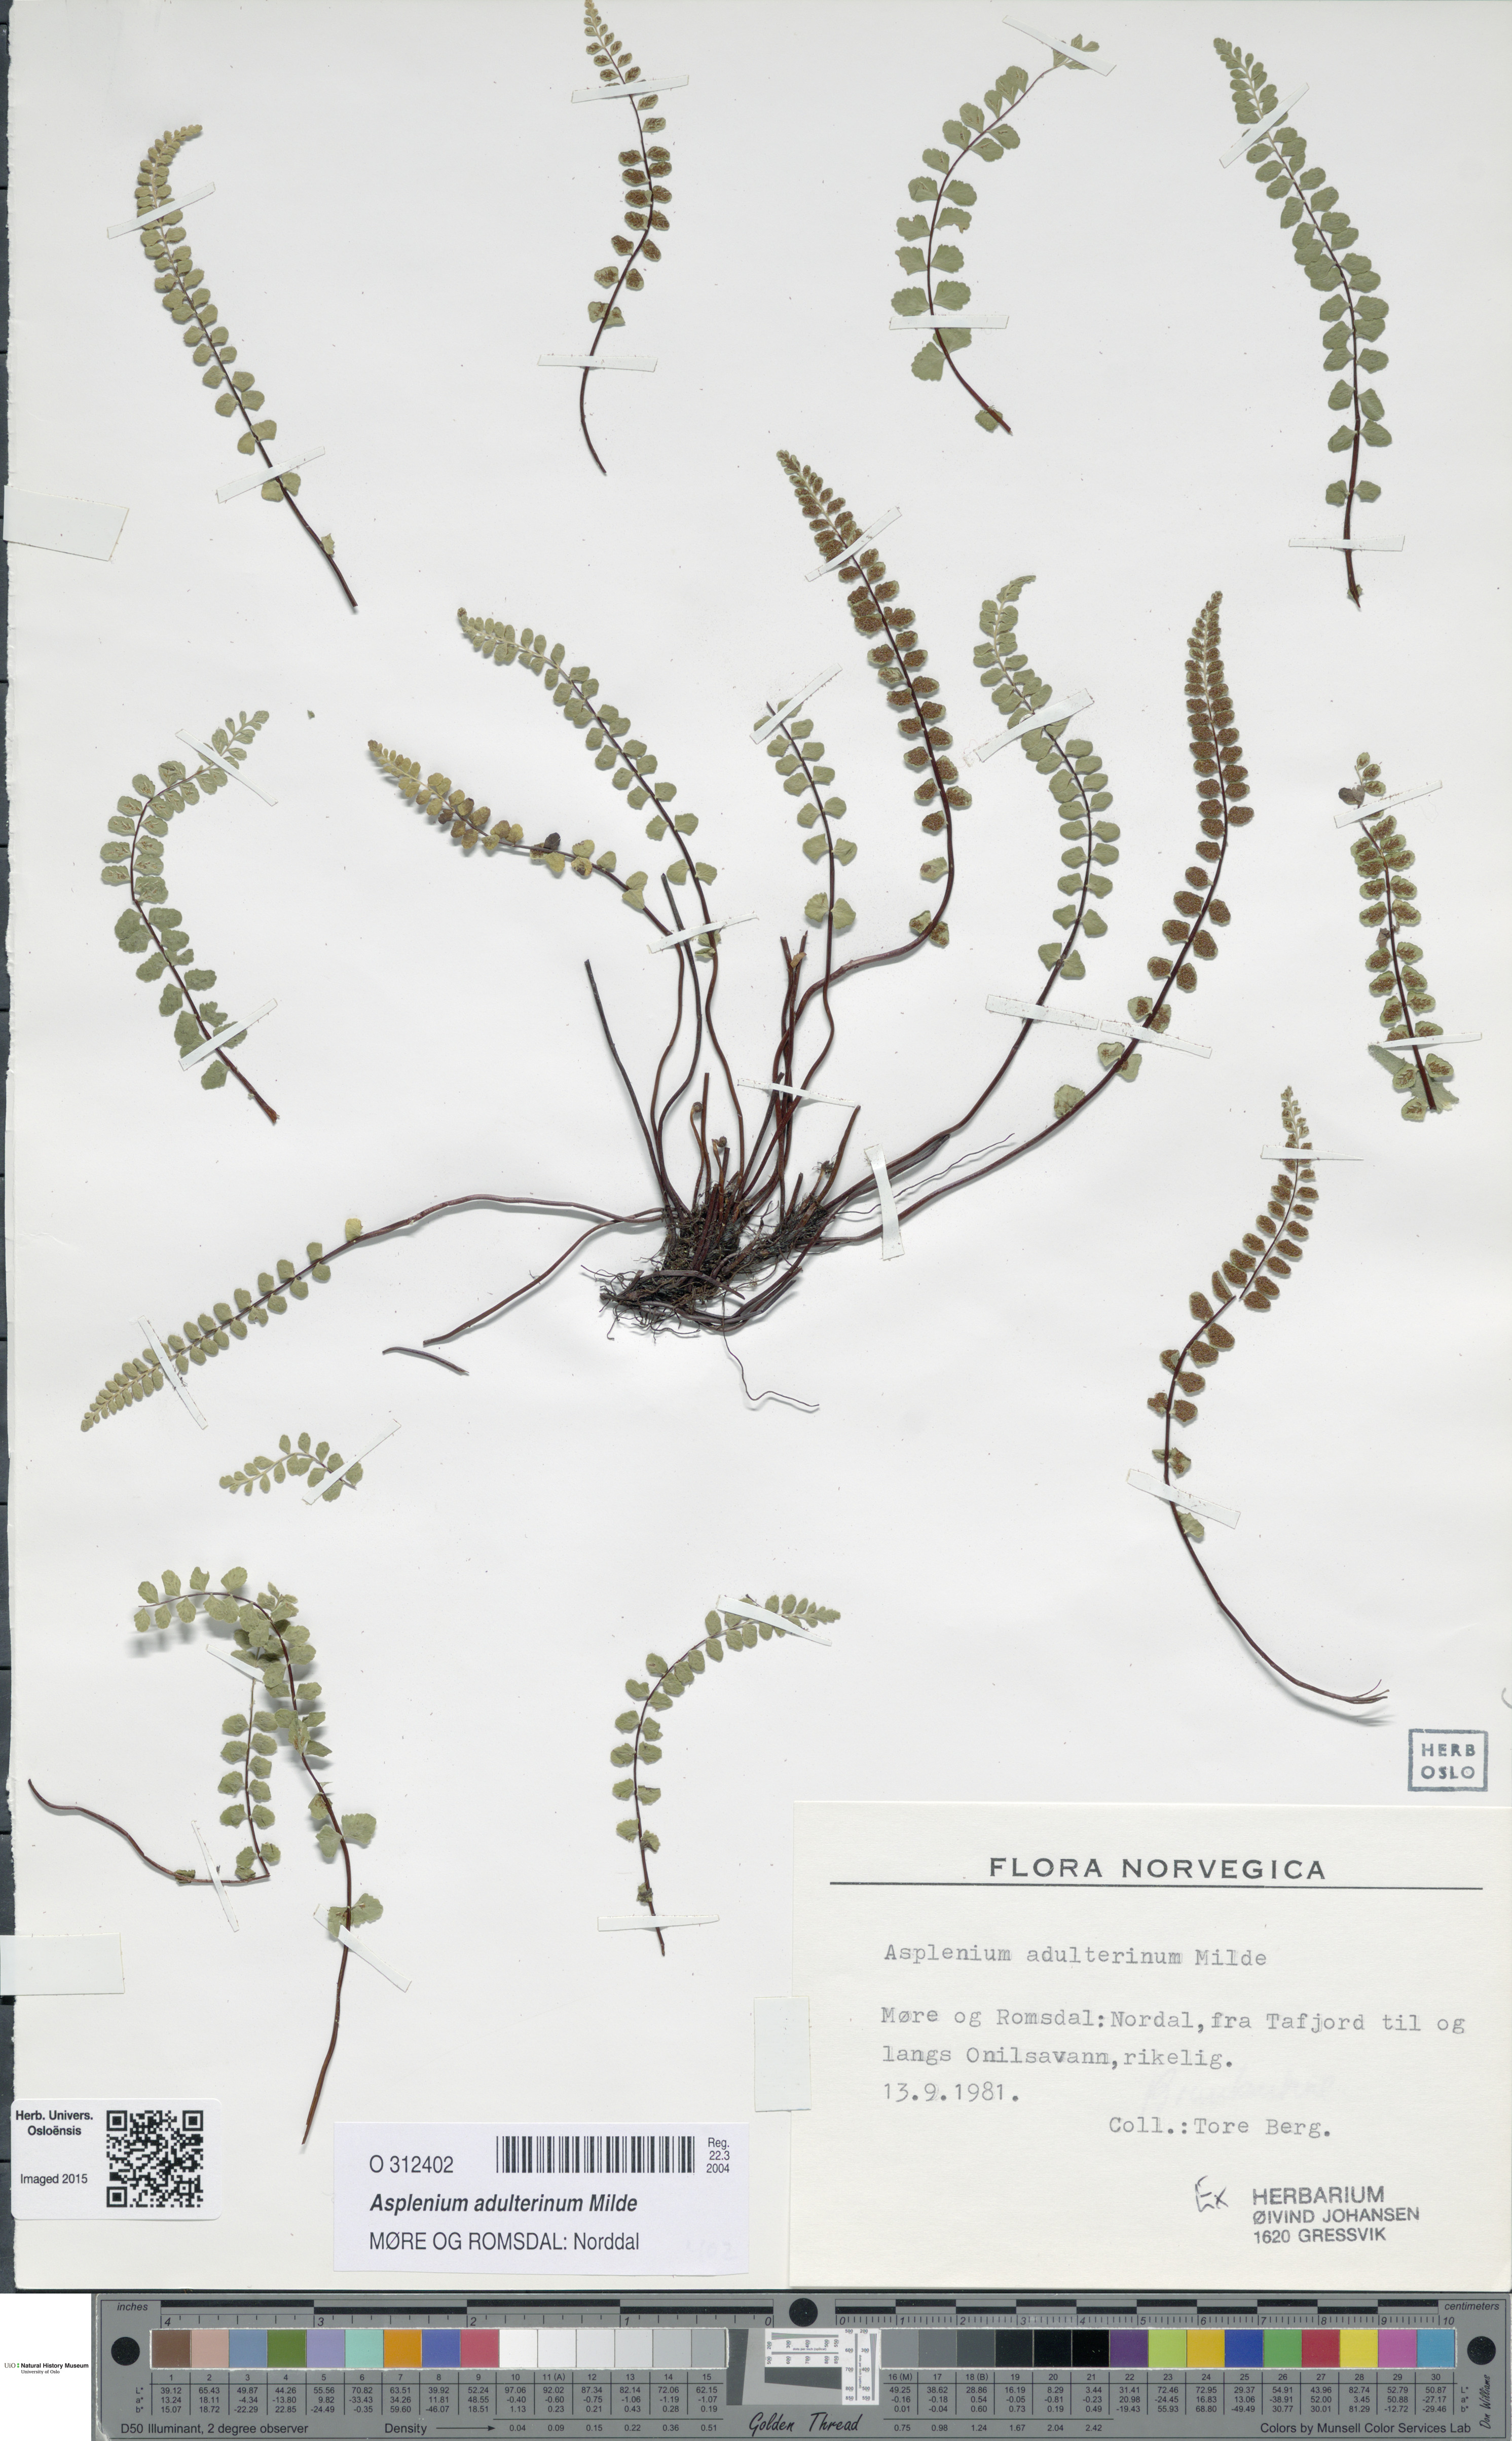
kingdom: Plantae
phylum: Tracheophyta
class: Polypodiopsida
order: Polypodiales
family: Aspleniaceae
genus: Asplenium
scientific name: Asplenium adulterinum
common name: Adulterated spleenwort
